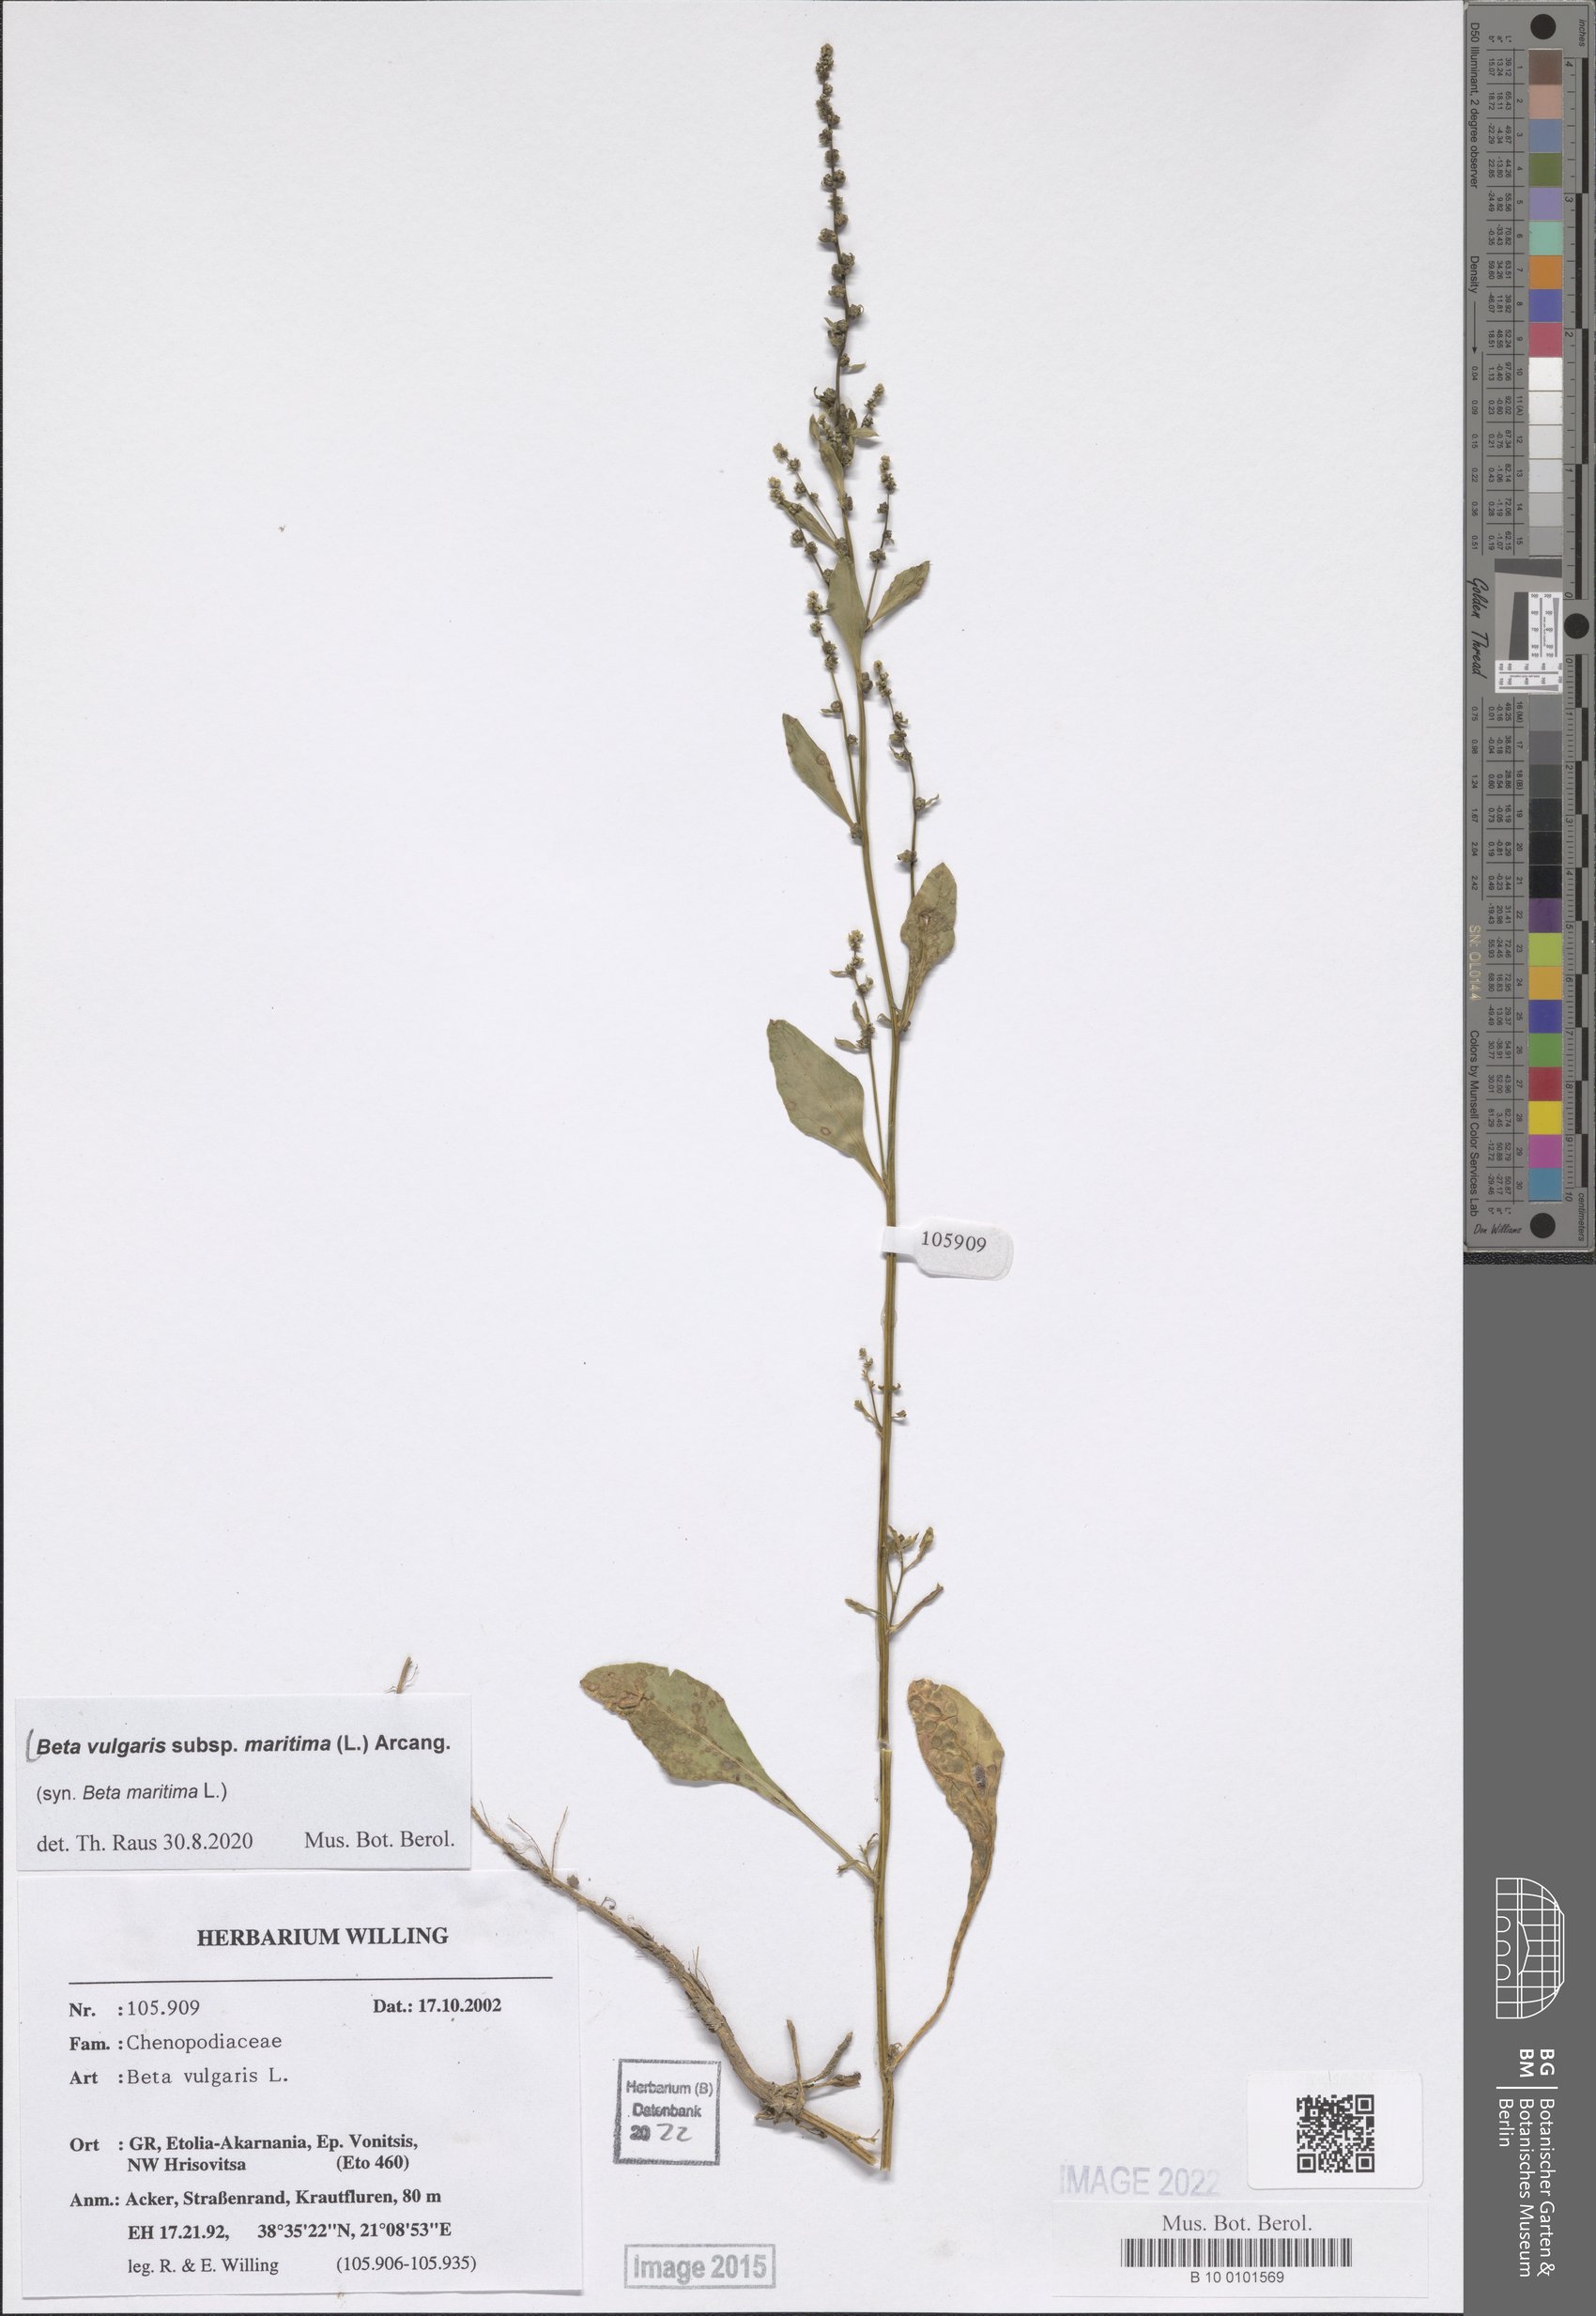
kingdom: Plantae
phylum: Tracheophyta
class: Magnoliopsida
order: Caryophyllales
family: Amaranthaceae
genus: Beta
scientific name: Beta maritima
